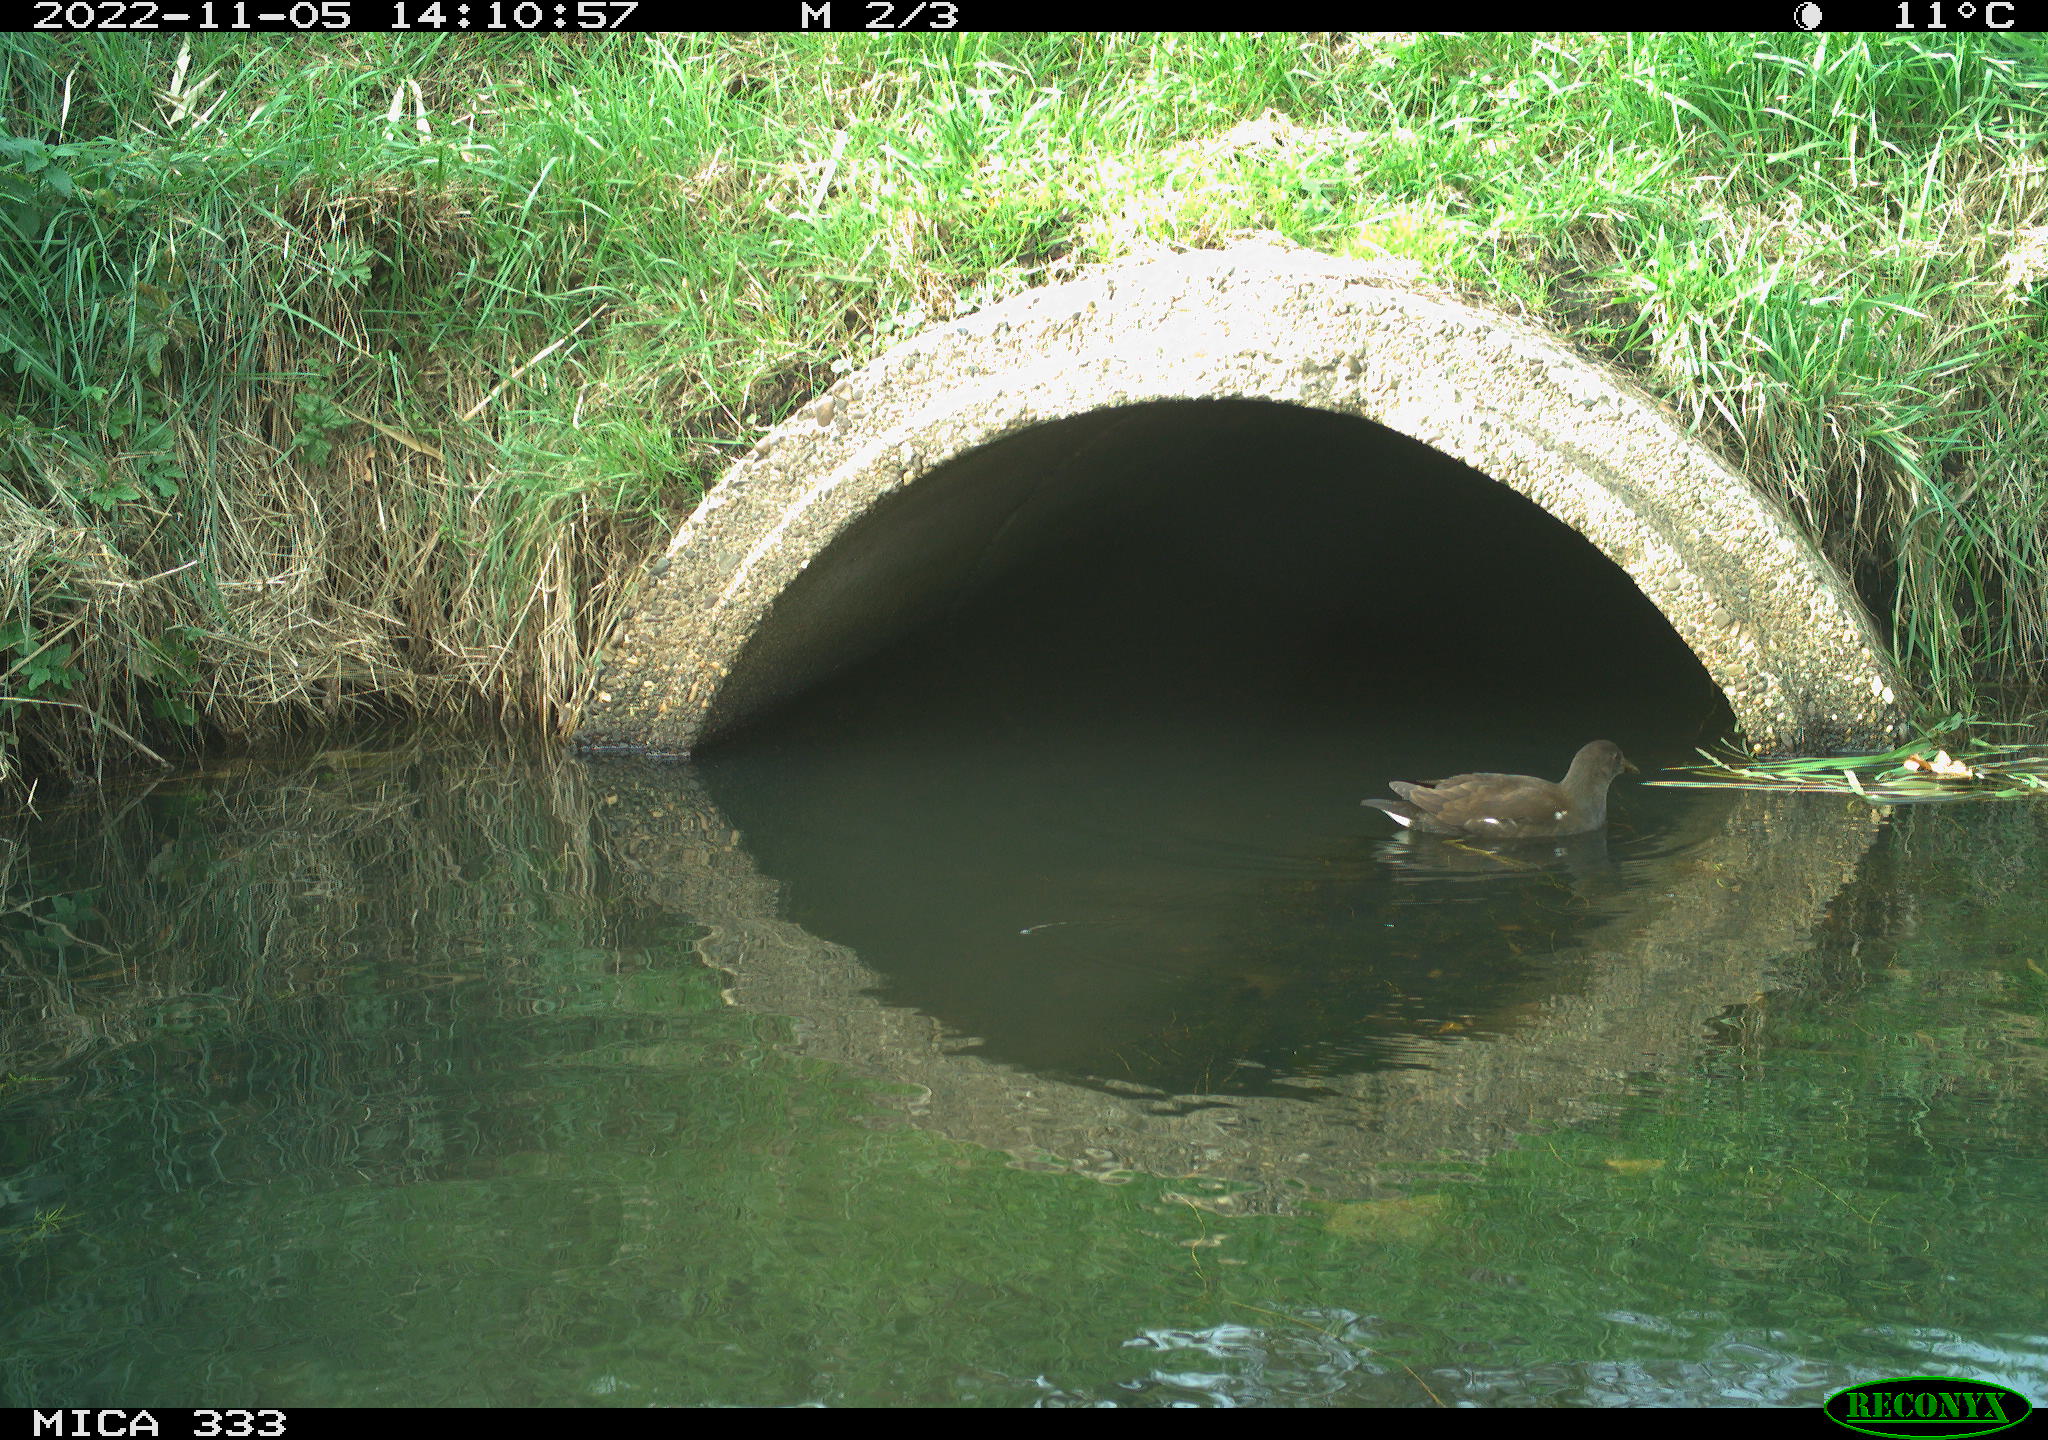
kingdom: Animalia
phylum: Chordata
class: Aves
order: Gruiformes
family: Rallidae
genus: Gallinula
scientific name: Gallinula chloropus
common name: Common moorhen
